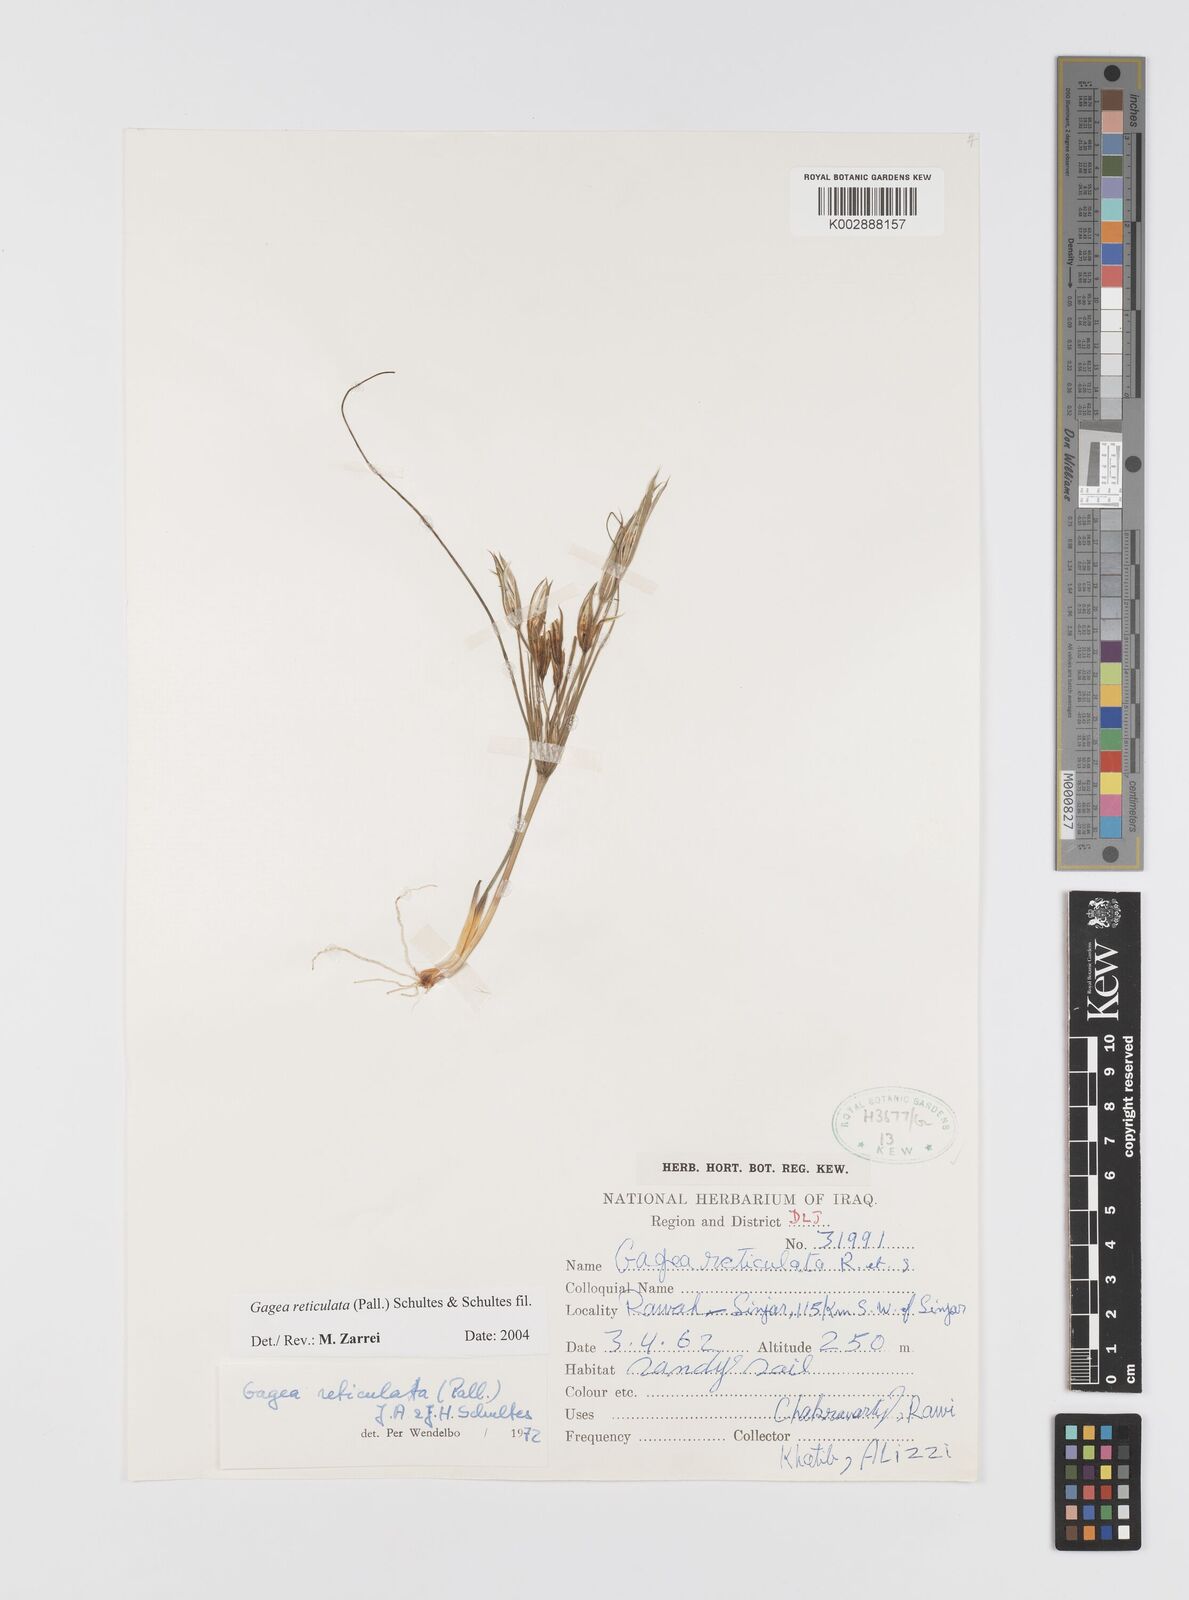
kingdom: Plantae
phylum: Tracheophyta
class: Liliopsida
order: Liliales
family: Liliaceae
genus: Gagea
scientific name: Gagea reticulata
